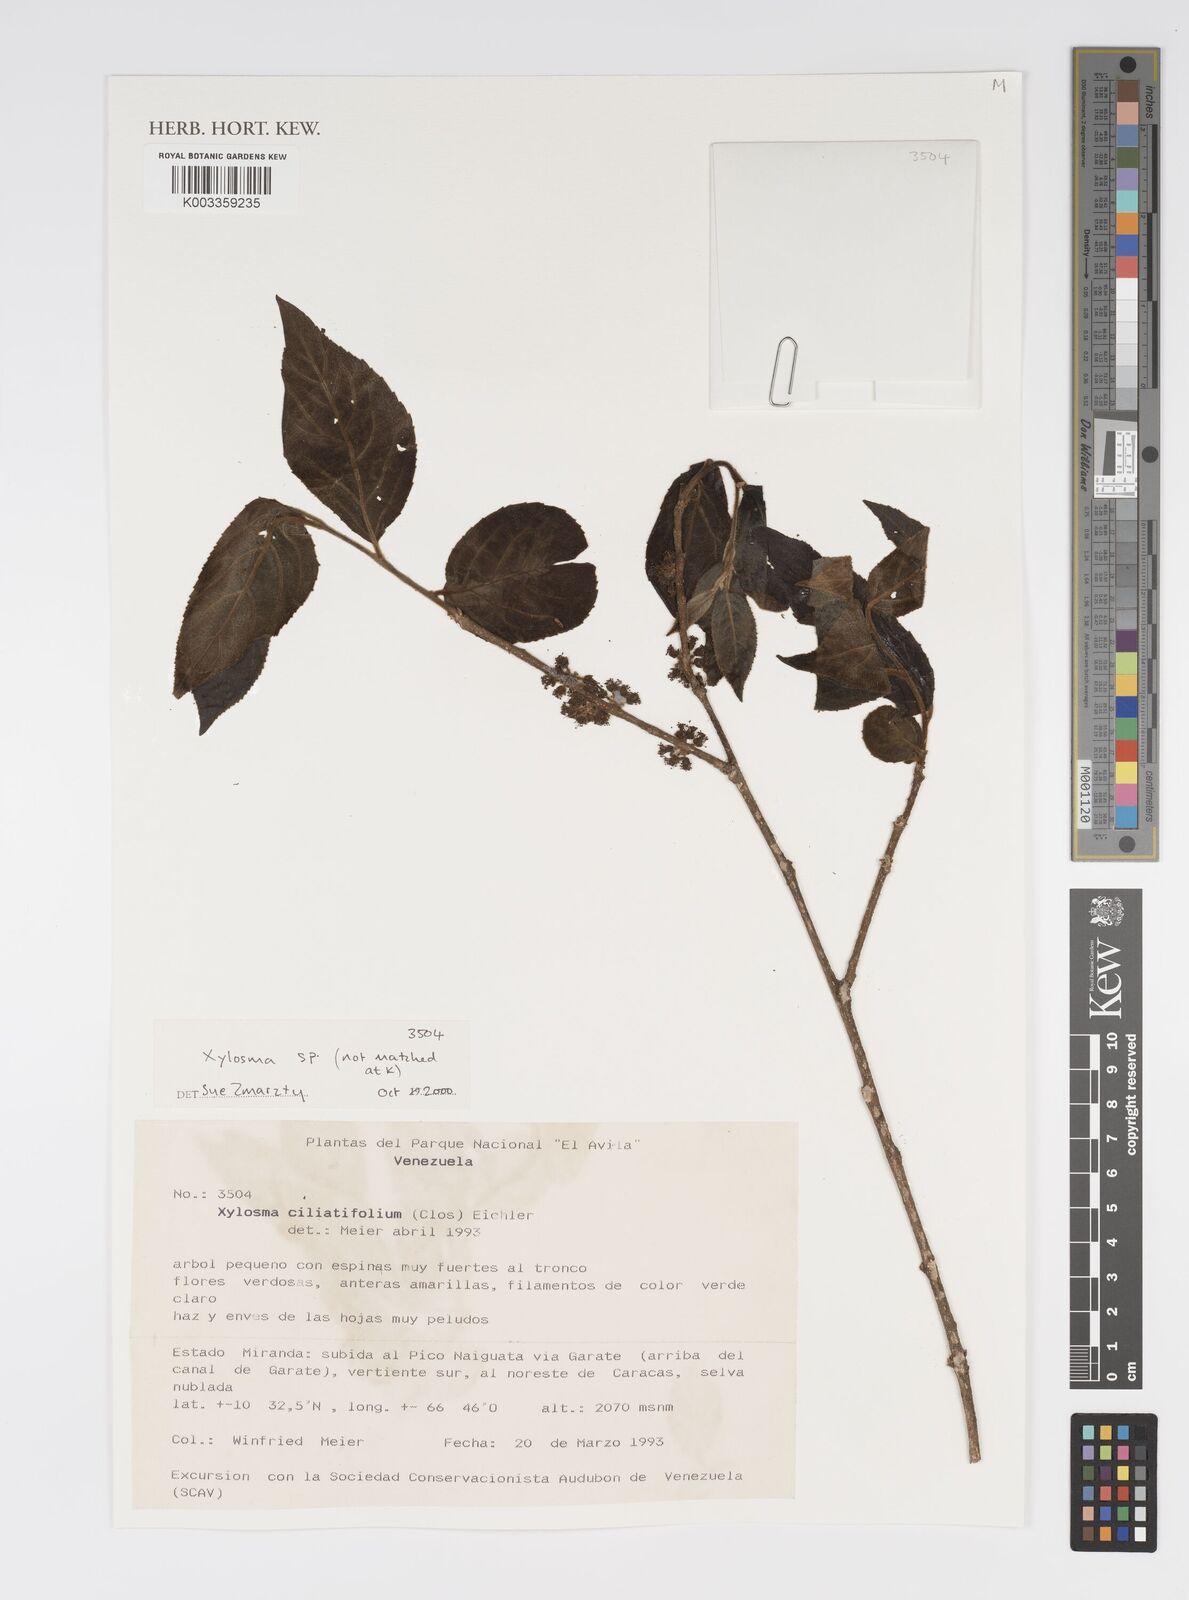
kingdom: Plantae
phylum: Tracheophyta
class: Magnoliopsida
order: Malpighiales
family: Salicaceae
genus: Xylosma
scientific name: Xylosma
